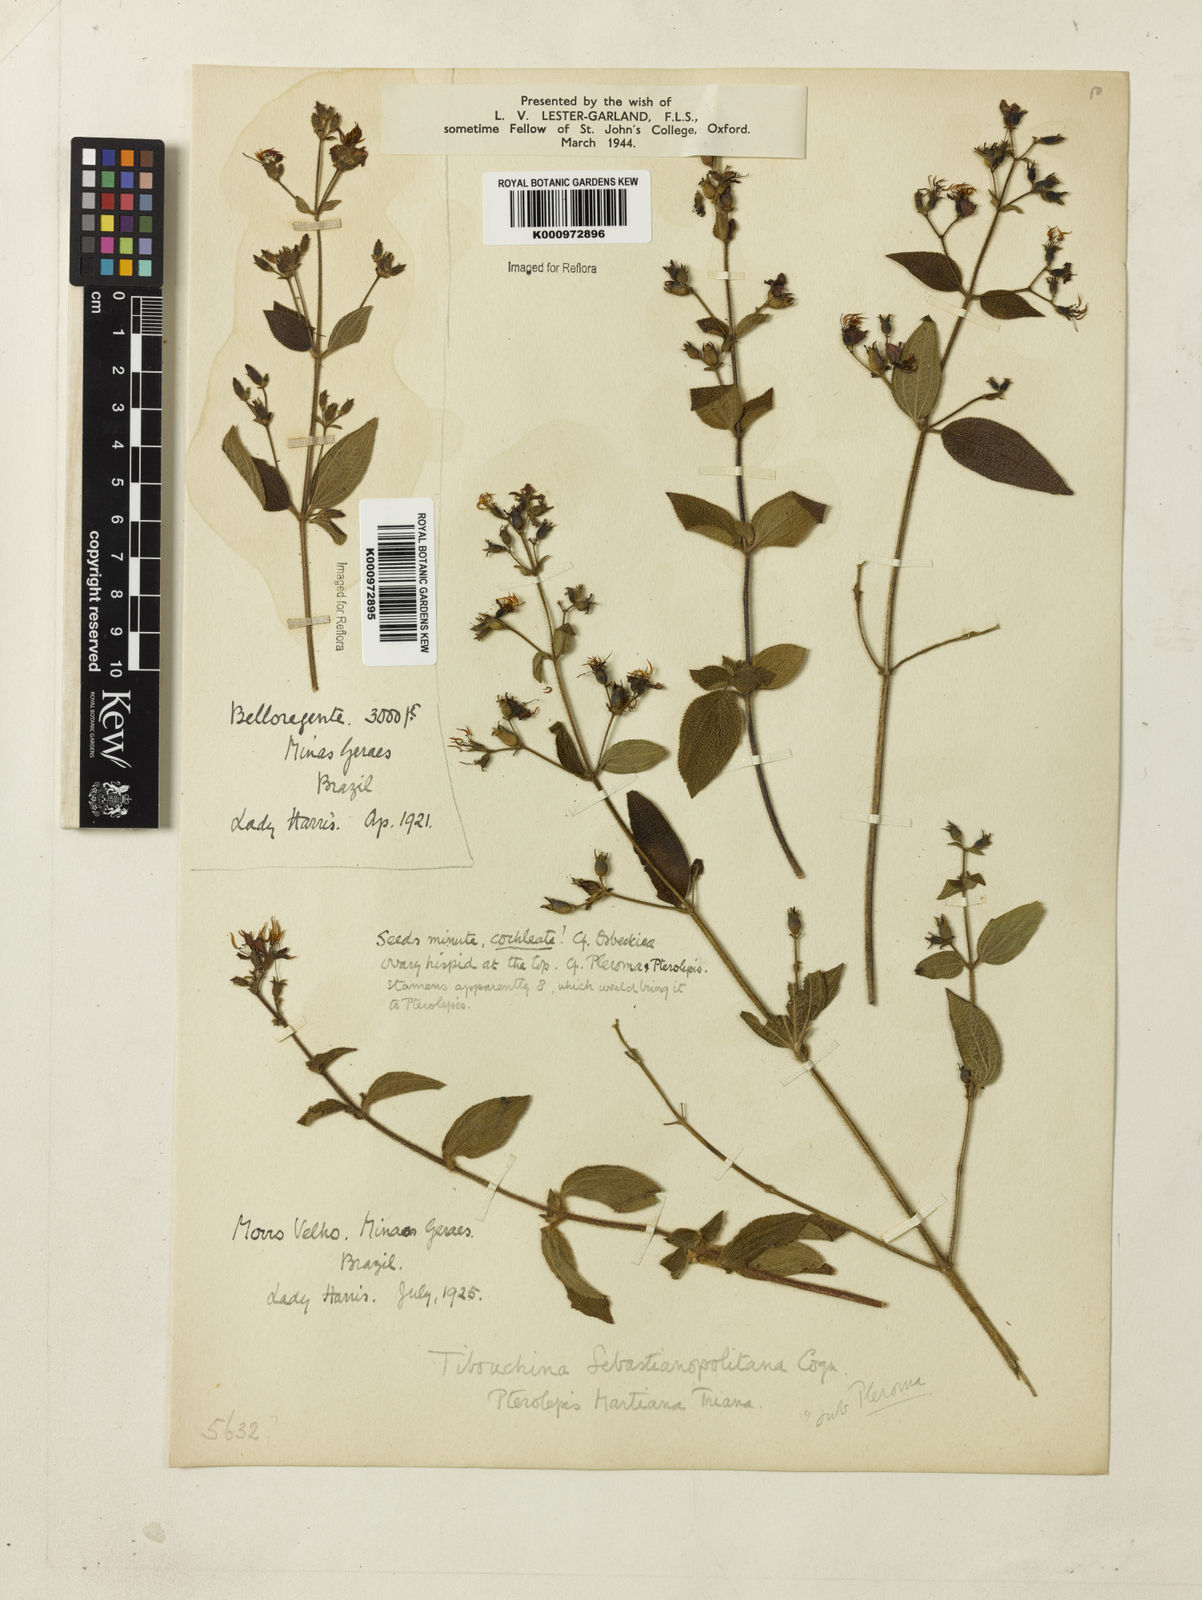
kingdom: Plantae
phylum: Tracheophyta
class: Magnoliopsida
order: Myrtales
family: Melastomataceae
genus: Chaetogastra
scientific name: Chaetogastra sebastianopolitana
